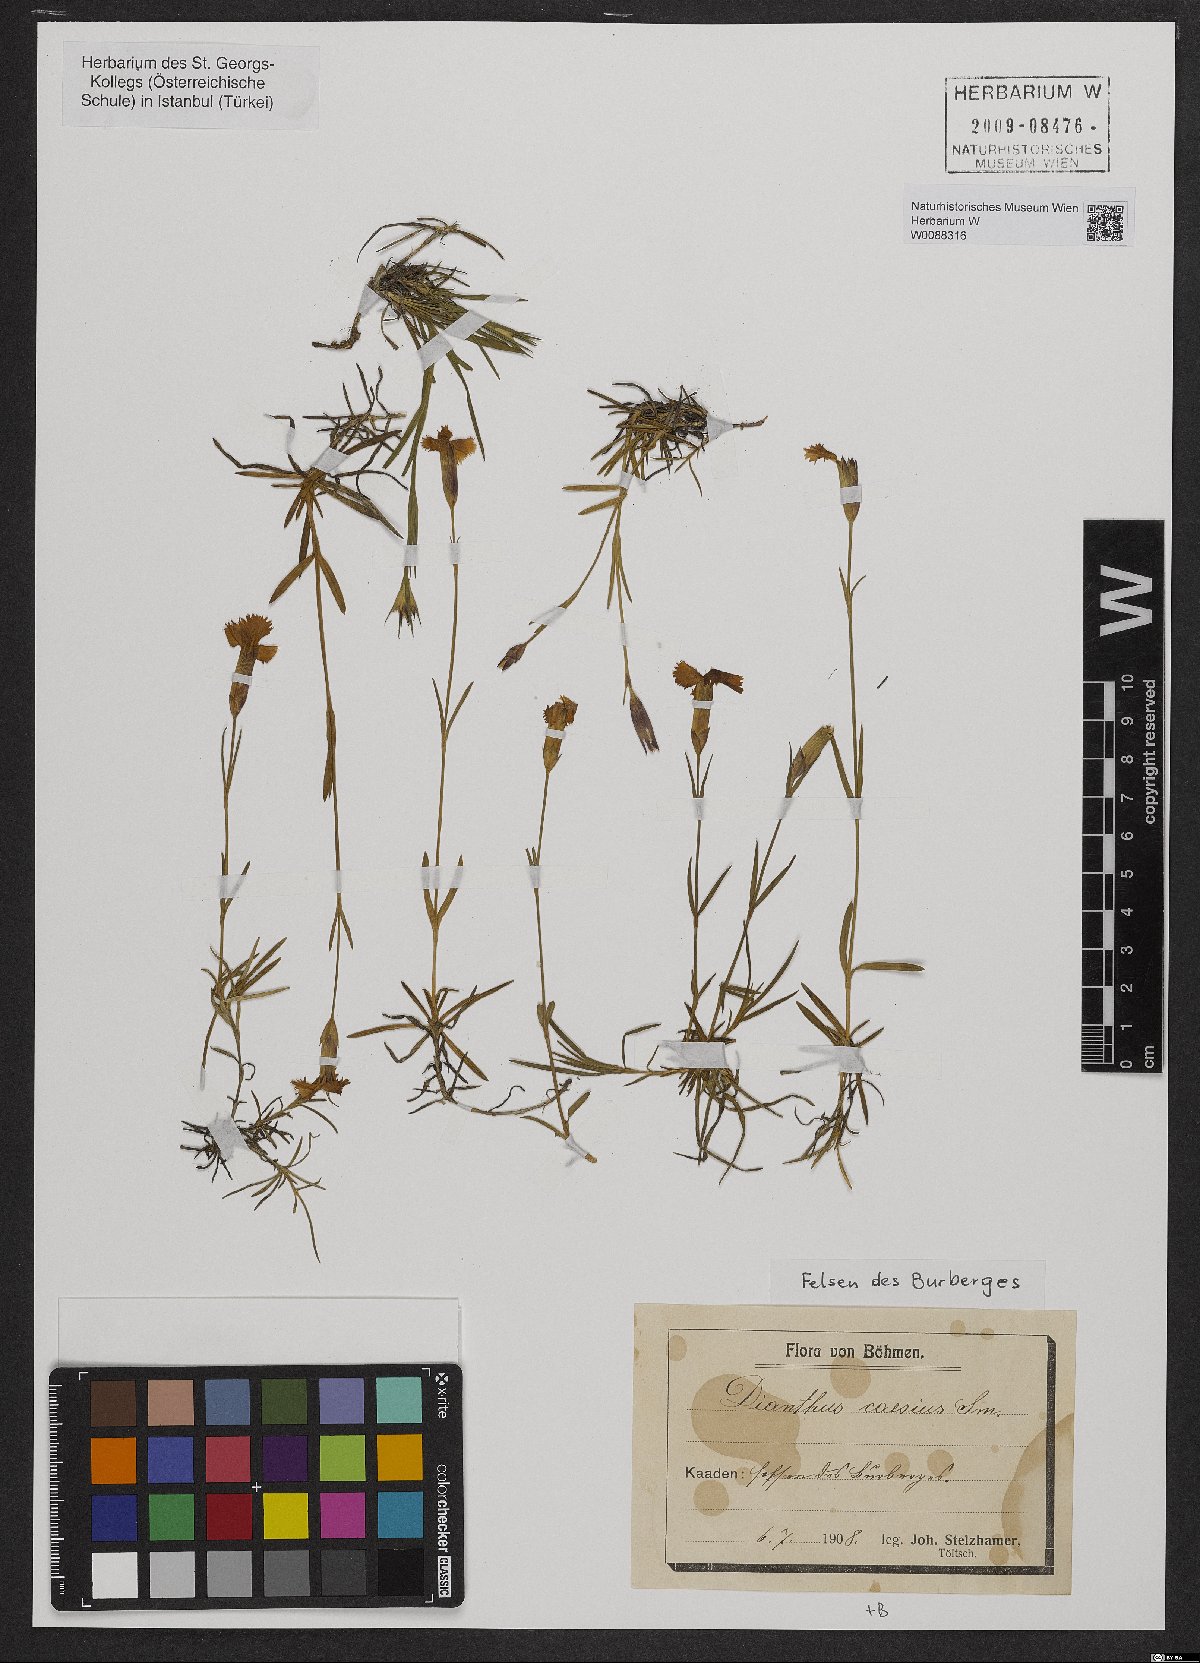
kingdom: Plantae
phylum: Tracheophyta
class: Magnoliopsida
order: Caryophyllales
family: Caryophyllaceae
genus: Dianthus
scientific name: Dianthus gratianopolitanus
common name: Cheddar pink
